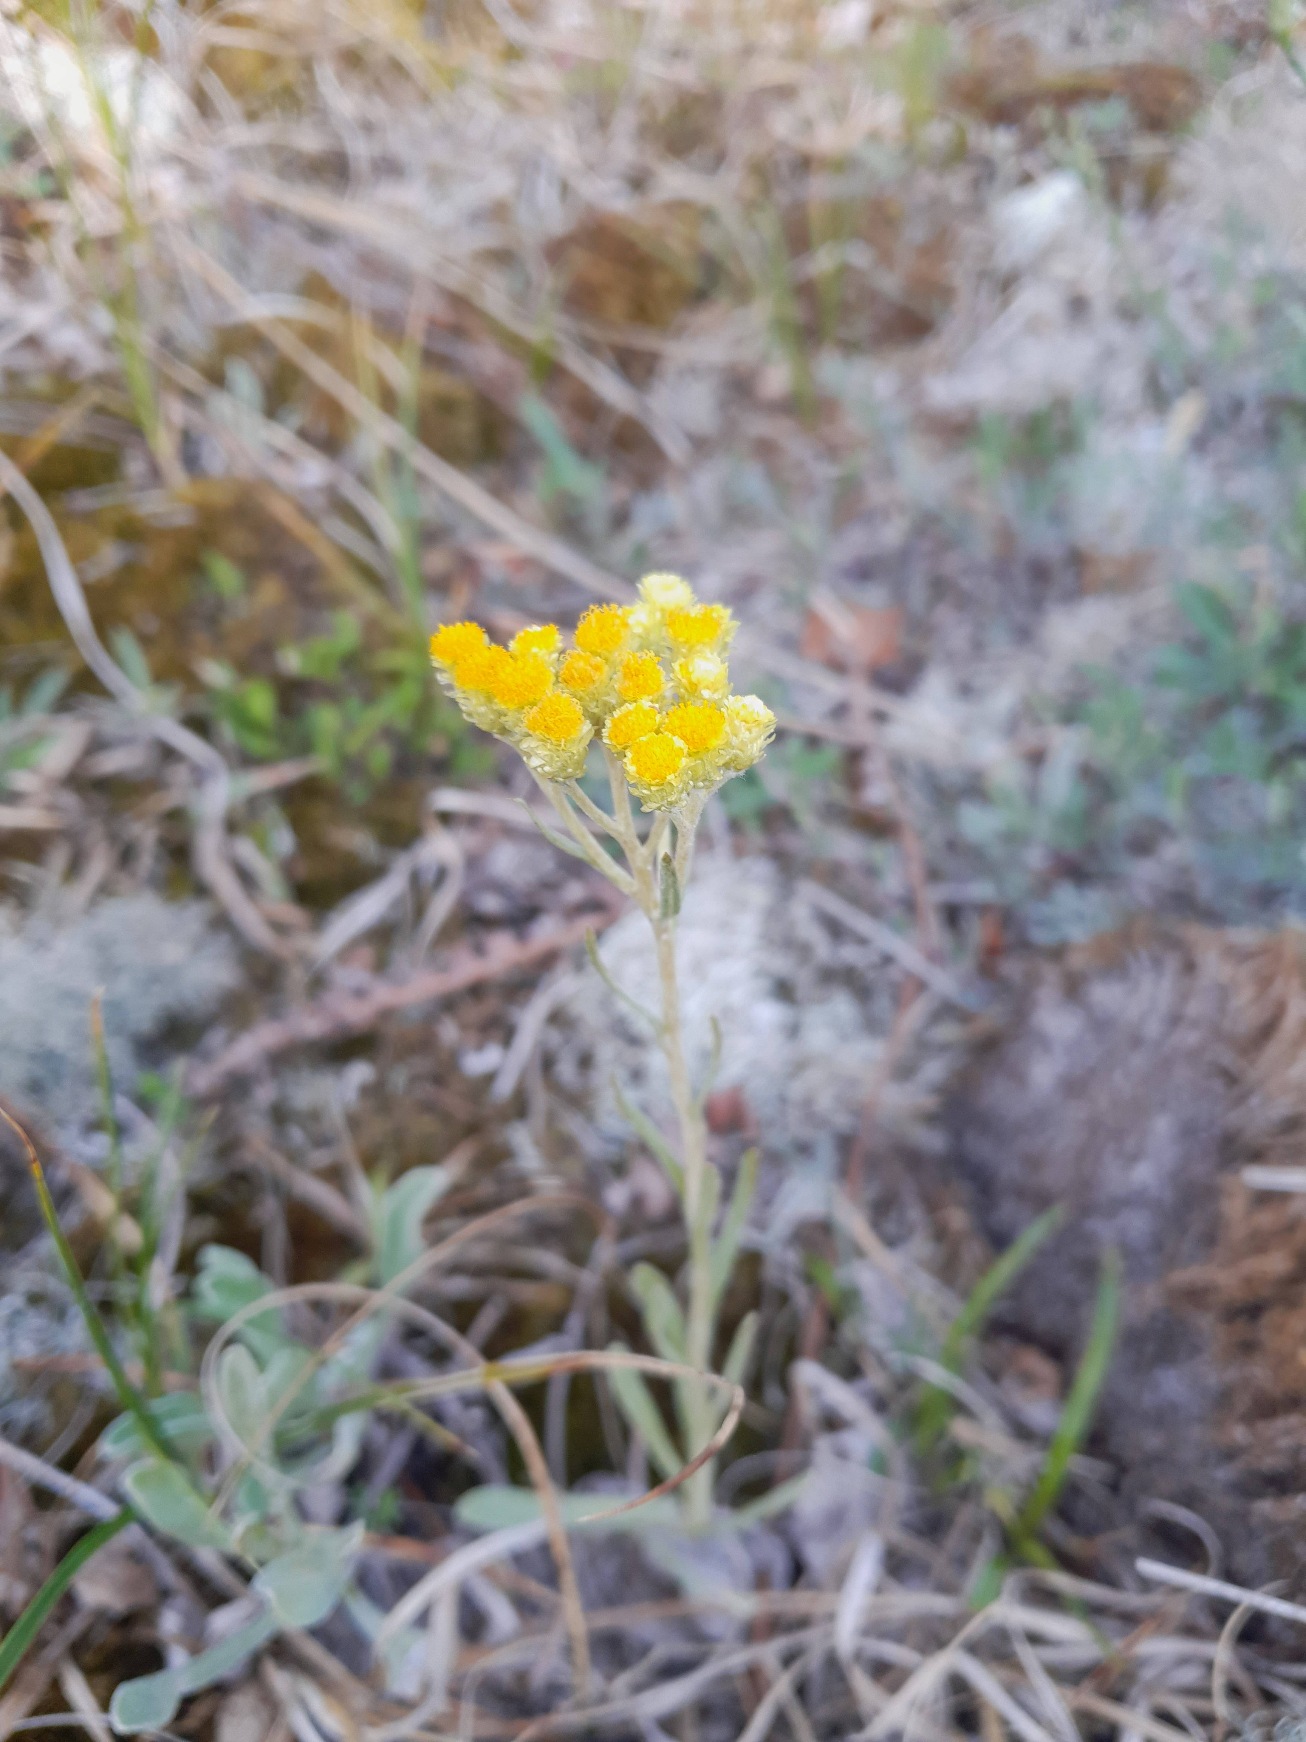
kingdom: Plantae
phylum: Tracheophyta
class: Magnoliopsida
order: Asterales
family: Asteraceae
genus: Helichrysum
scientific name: Helichrysum arenarium
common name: Gul evighedsblomst
